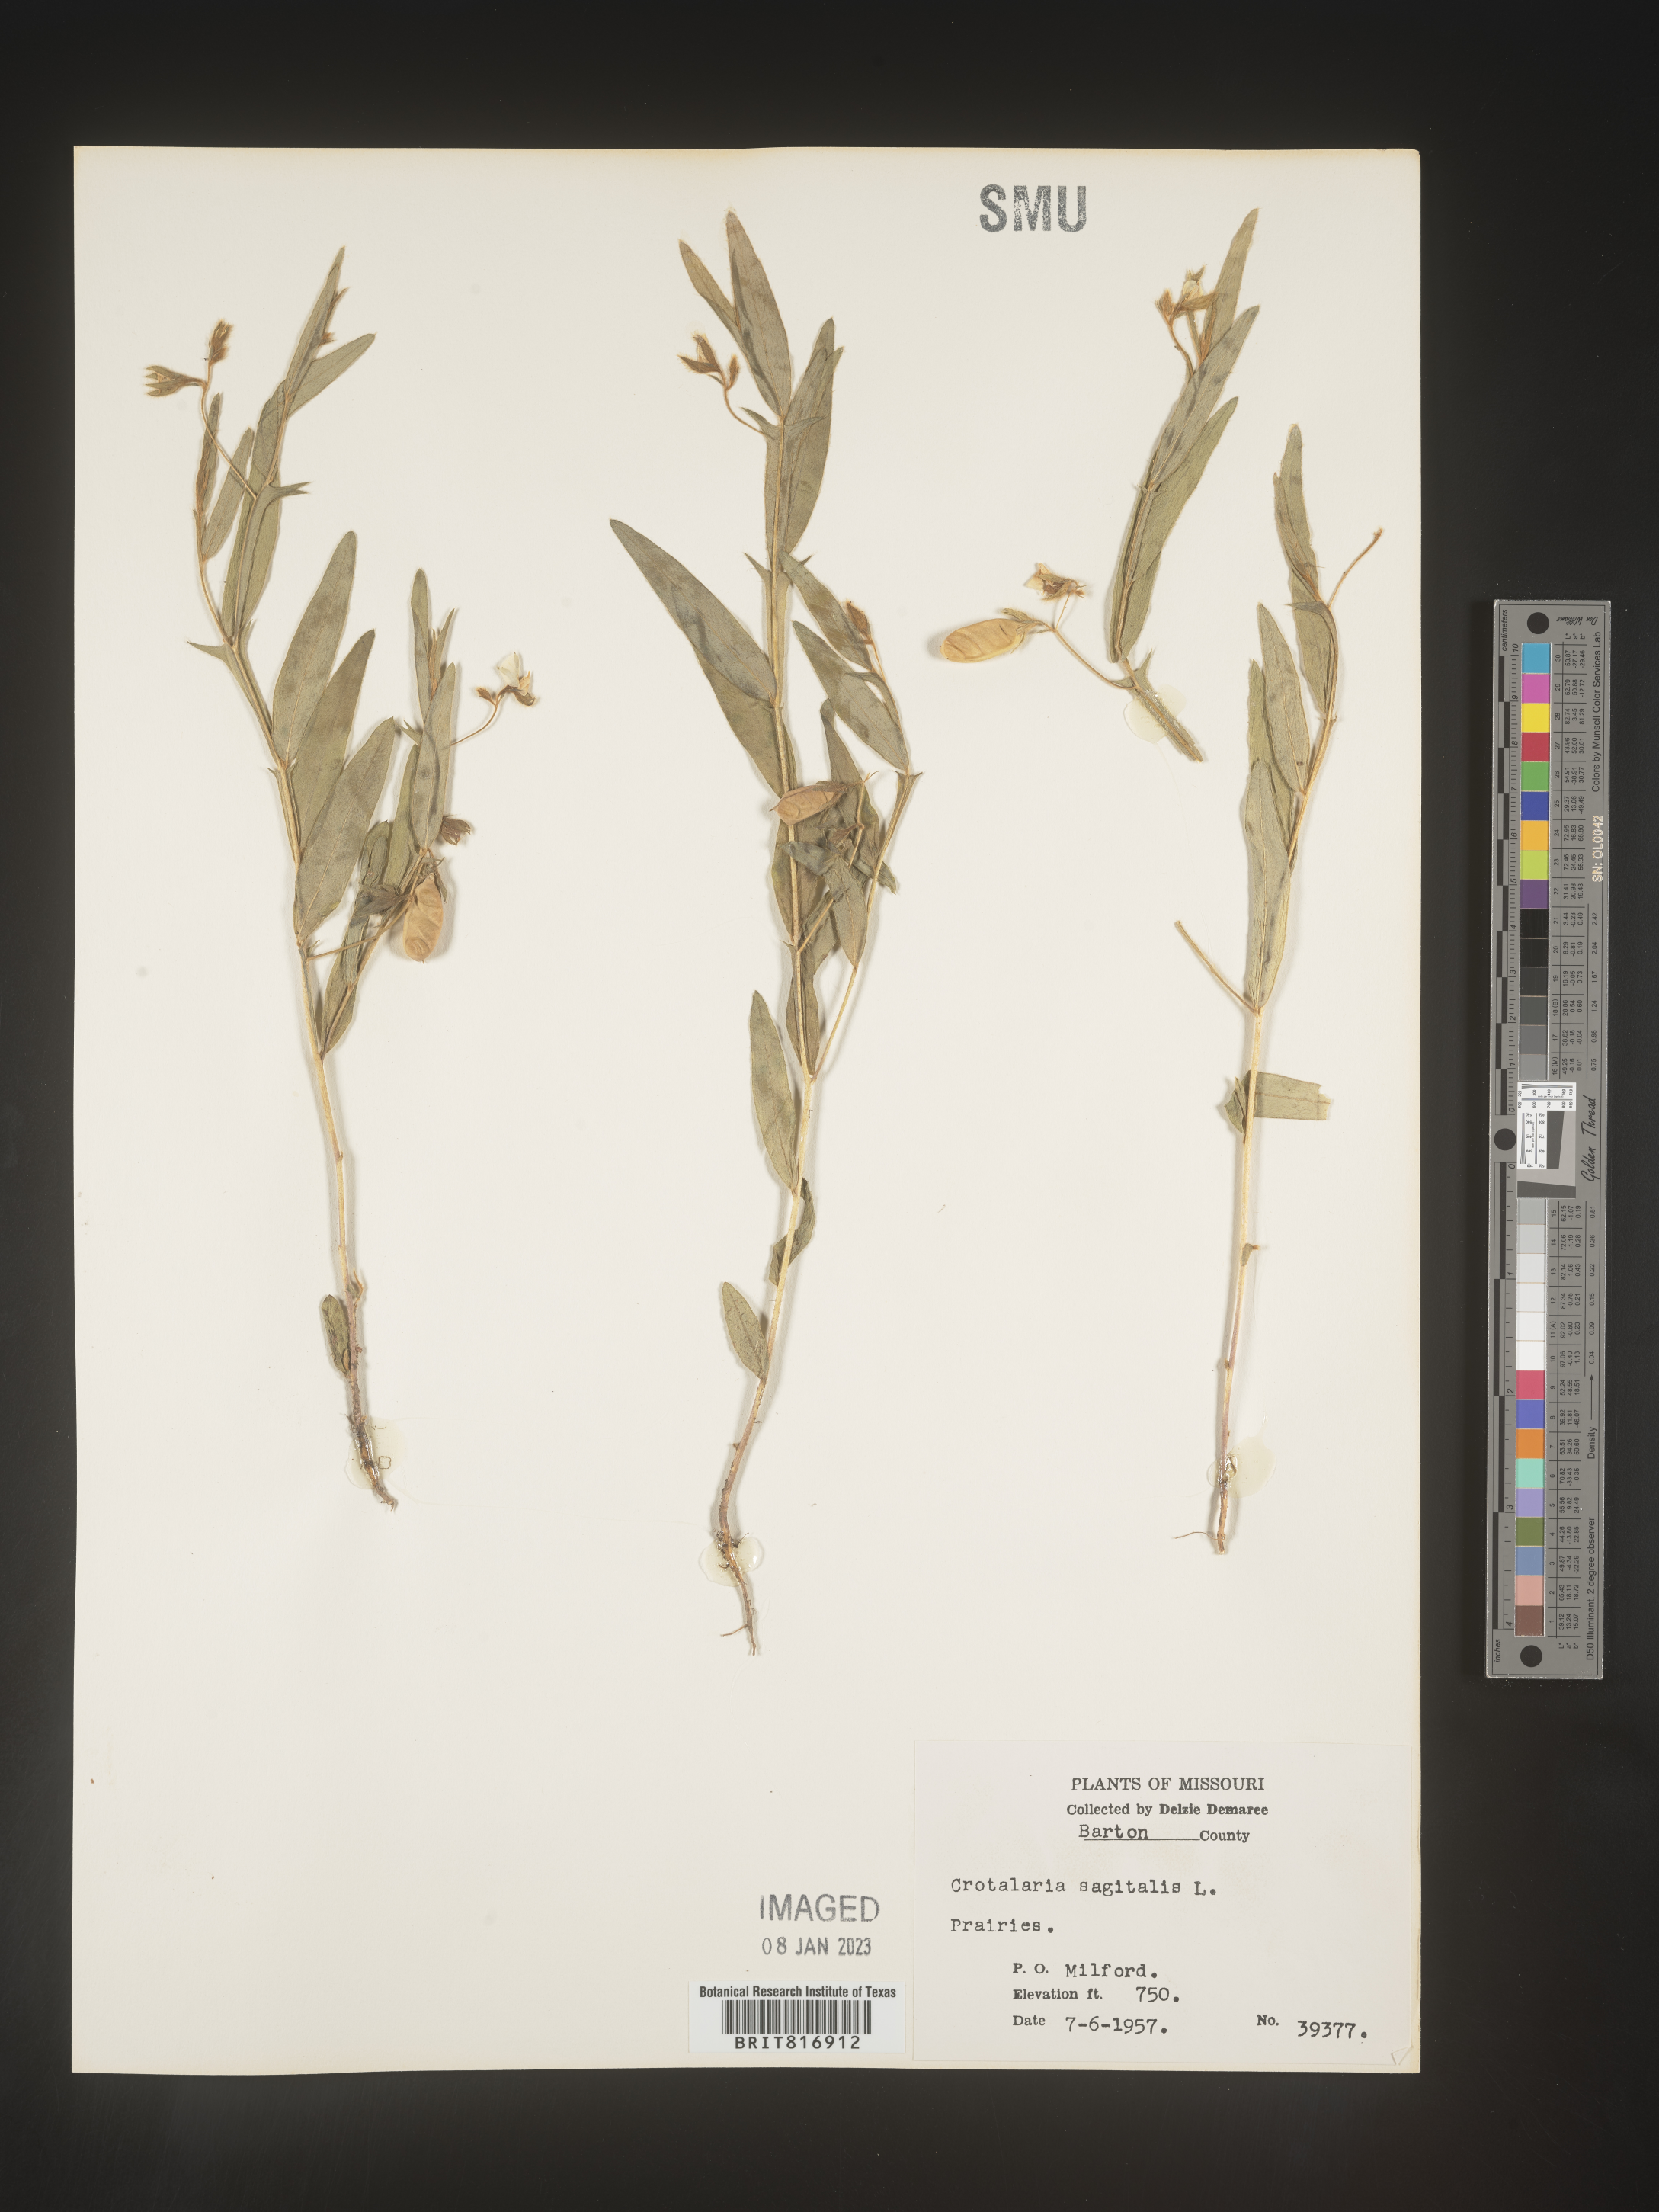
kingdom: Plantae
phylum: Tracheophyta
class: Magnoliopsida
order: Fabales
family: Fabaceae
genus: Crotalaria
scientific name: Crotalaria sagittalis
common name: Arrowhead rattlebox
